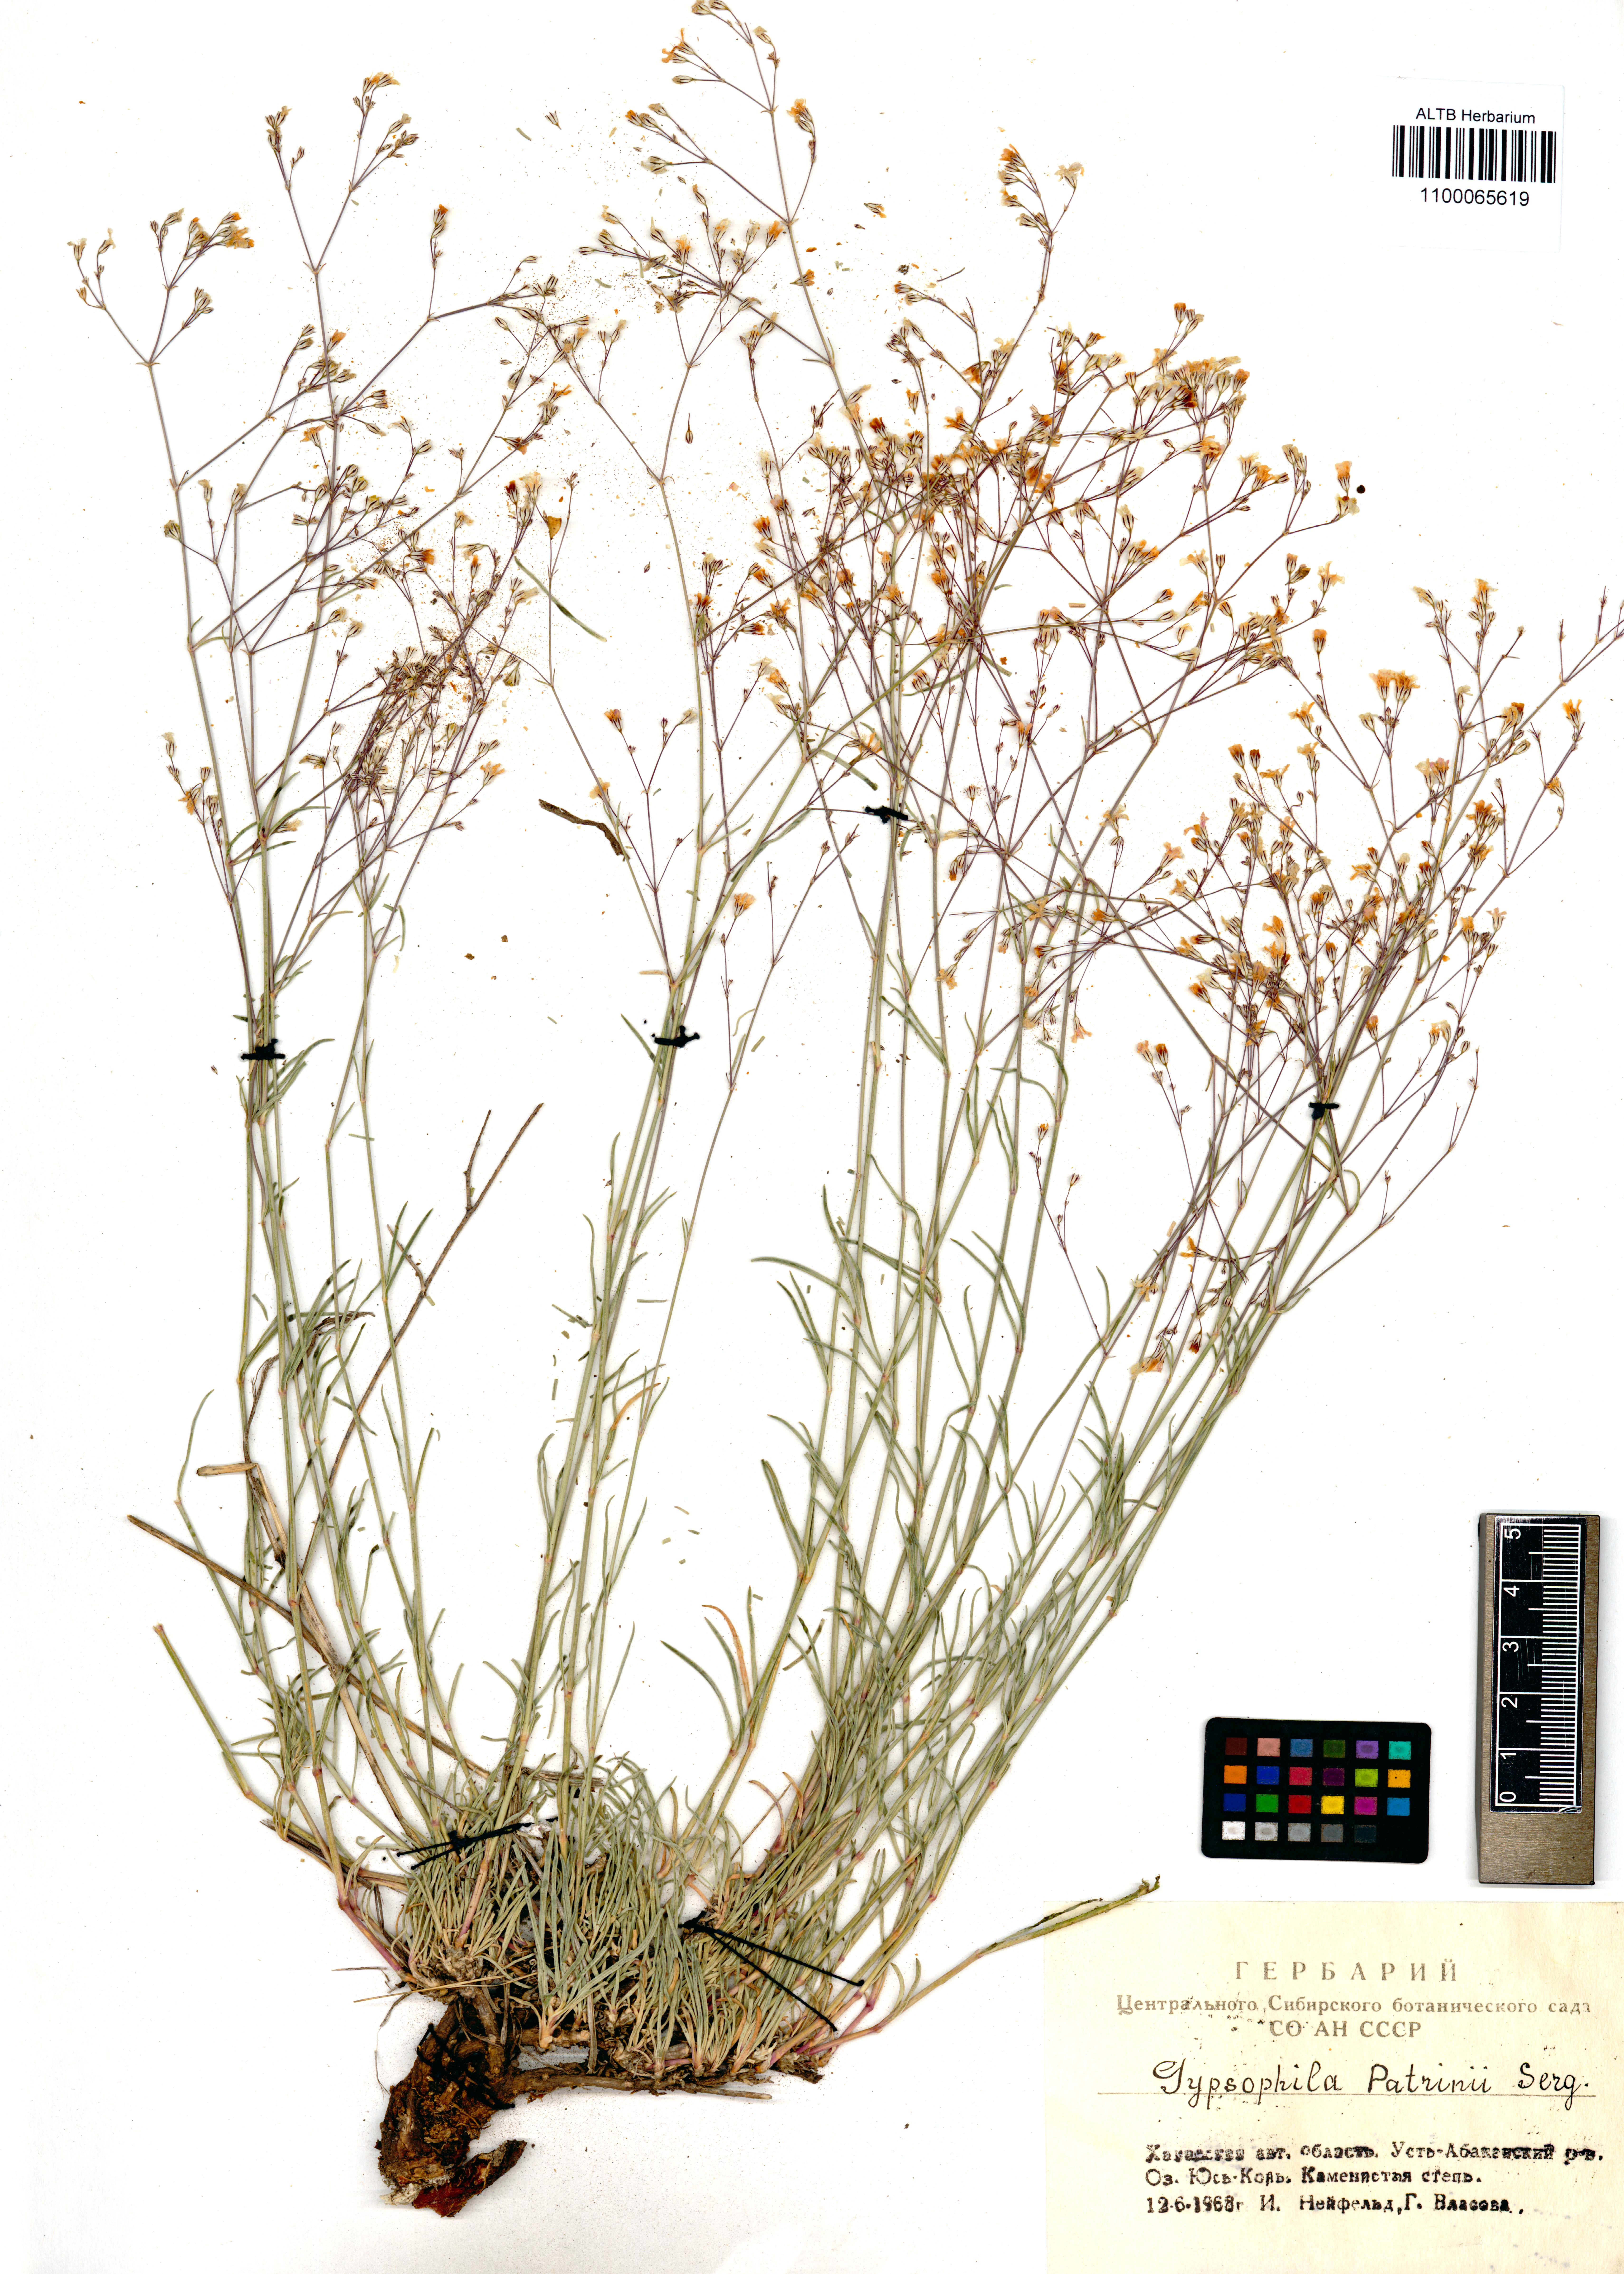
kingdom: Plantae
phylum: Tracheophyta
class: Magnoliopsida
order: Caryophyllales
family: Caryophyllaceae
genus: Gypsophila
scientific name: Gypsophila patrinii
